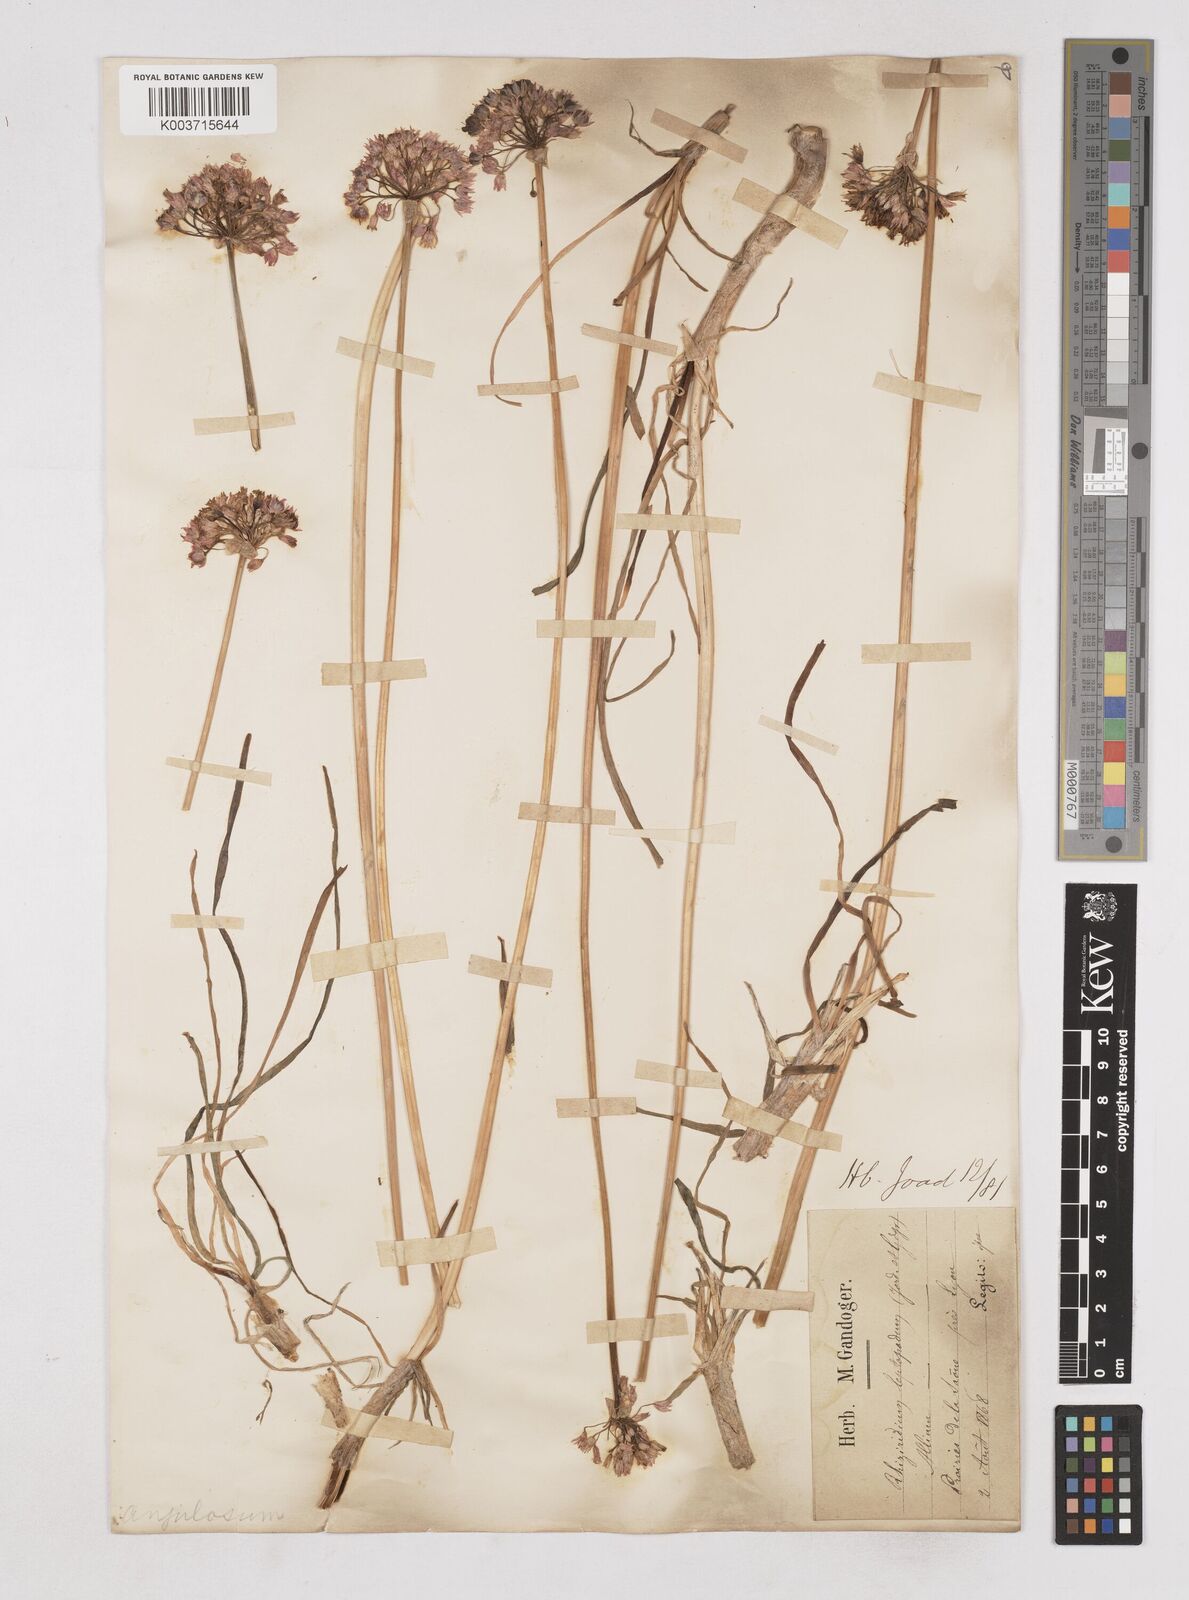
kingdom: Plantae
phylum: Tracheophyta
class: Liliopsida
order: Asparagales
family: Amaryllidaceae
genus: Allium
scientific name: Allium angulosum
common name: Mouse garlic
